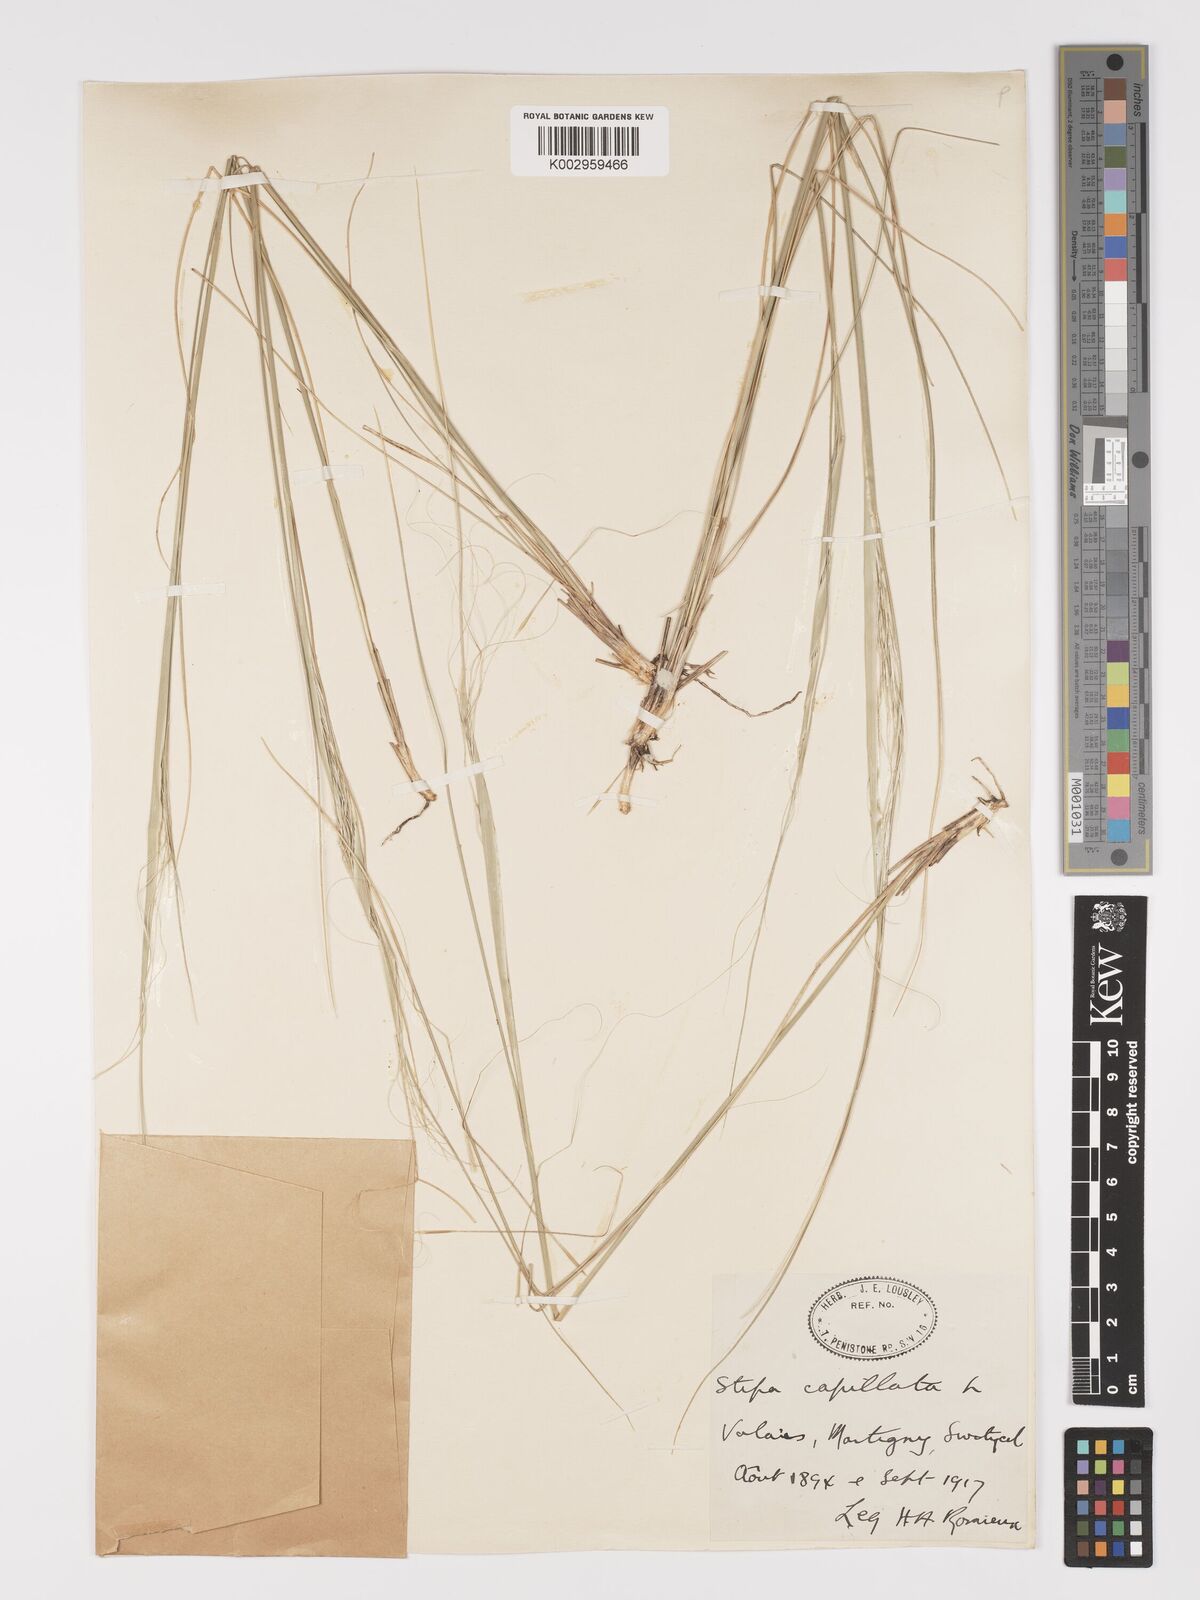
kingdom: Plantae
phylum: Tracheophyta
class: Liliopsida
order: Poales
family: Poaceae
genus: Stipa
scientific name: Stipa capillata
